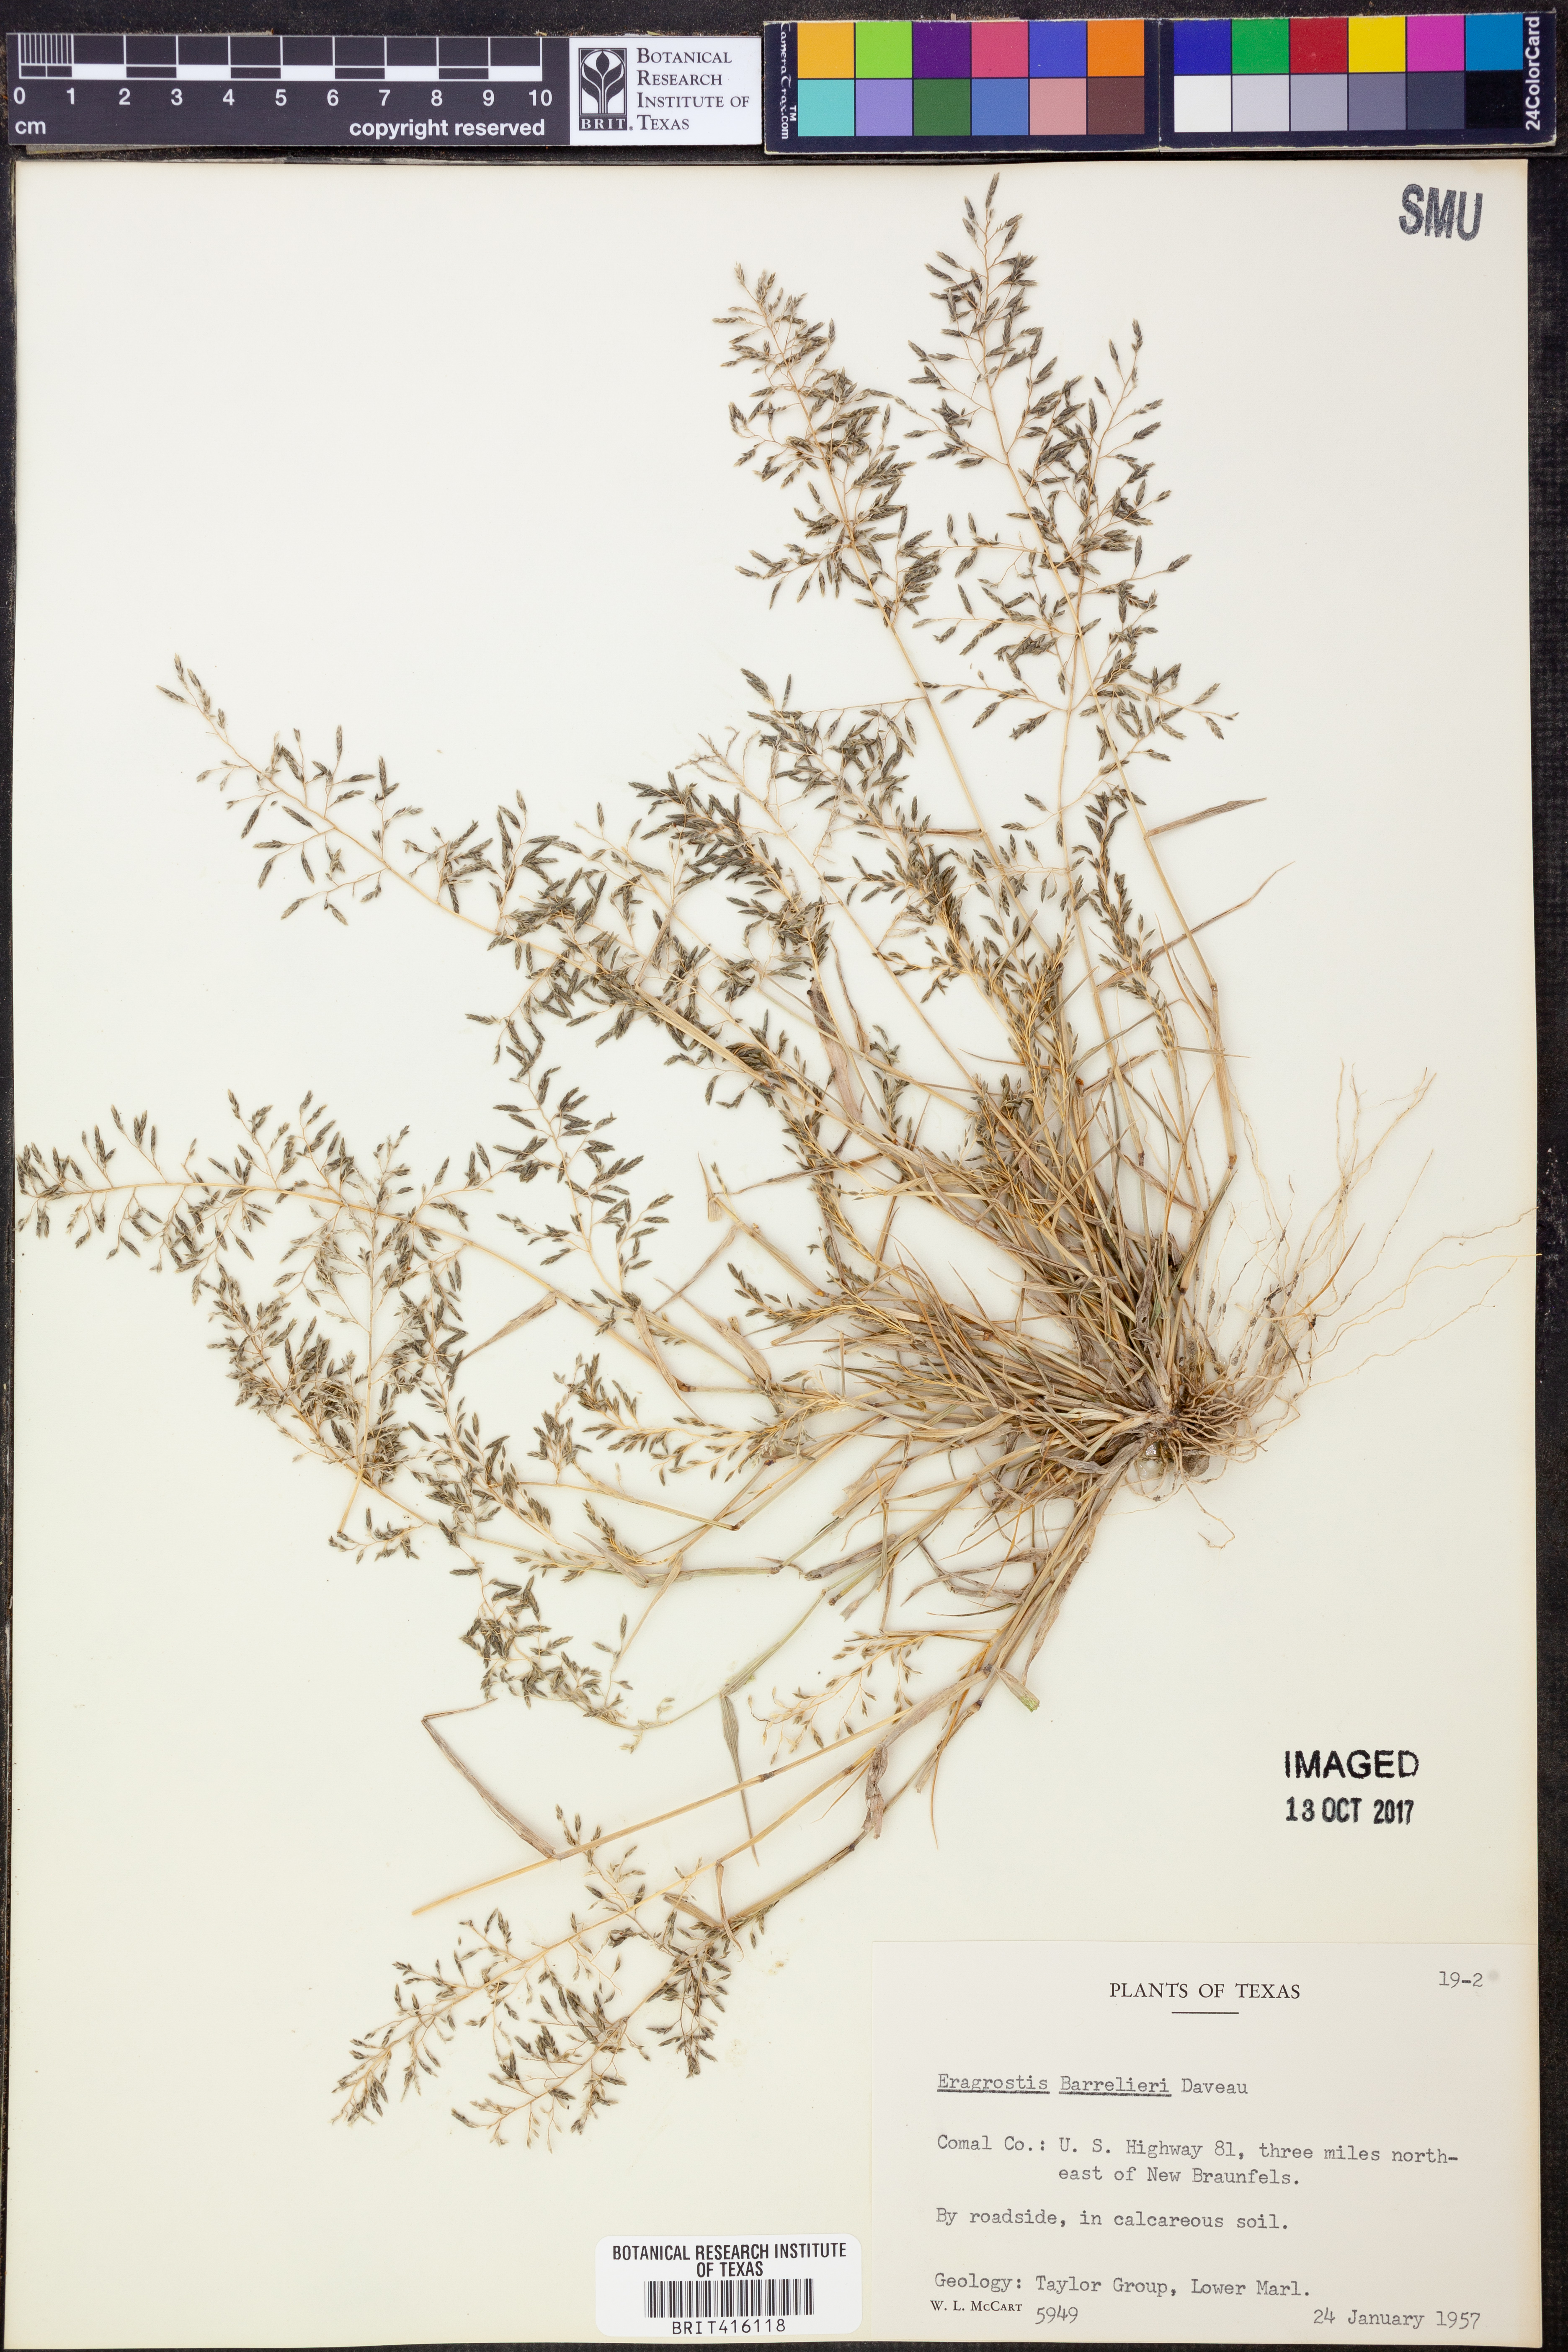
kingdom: Plantae
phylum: Tracheophyta
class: Liliopsida
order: Poales
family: Poaceae
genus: Eragrostis
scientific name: Eragrostis barrelieri
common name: Mediterranean lovegrass
